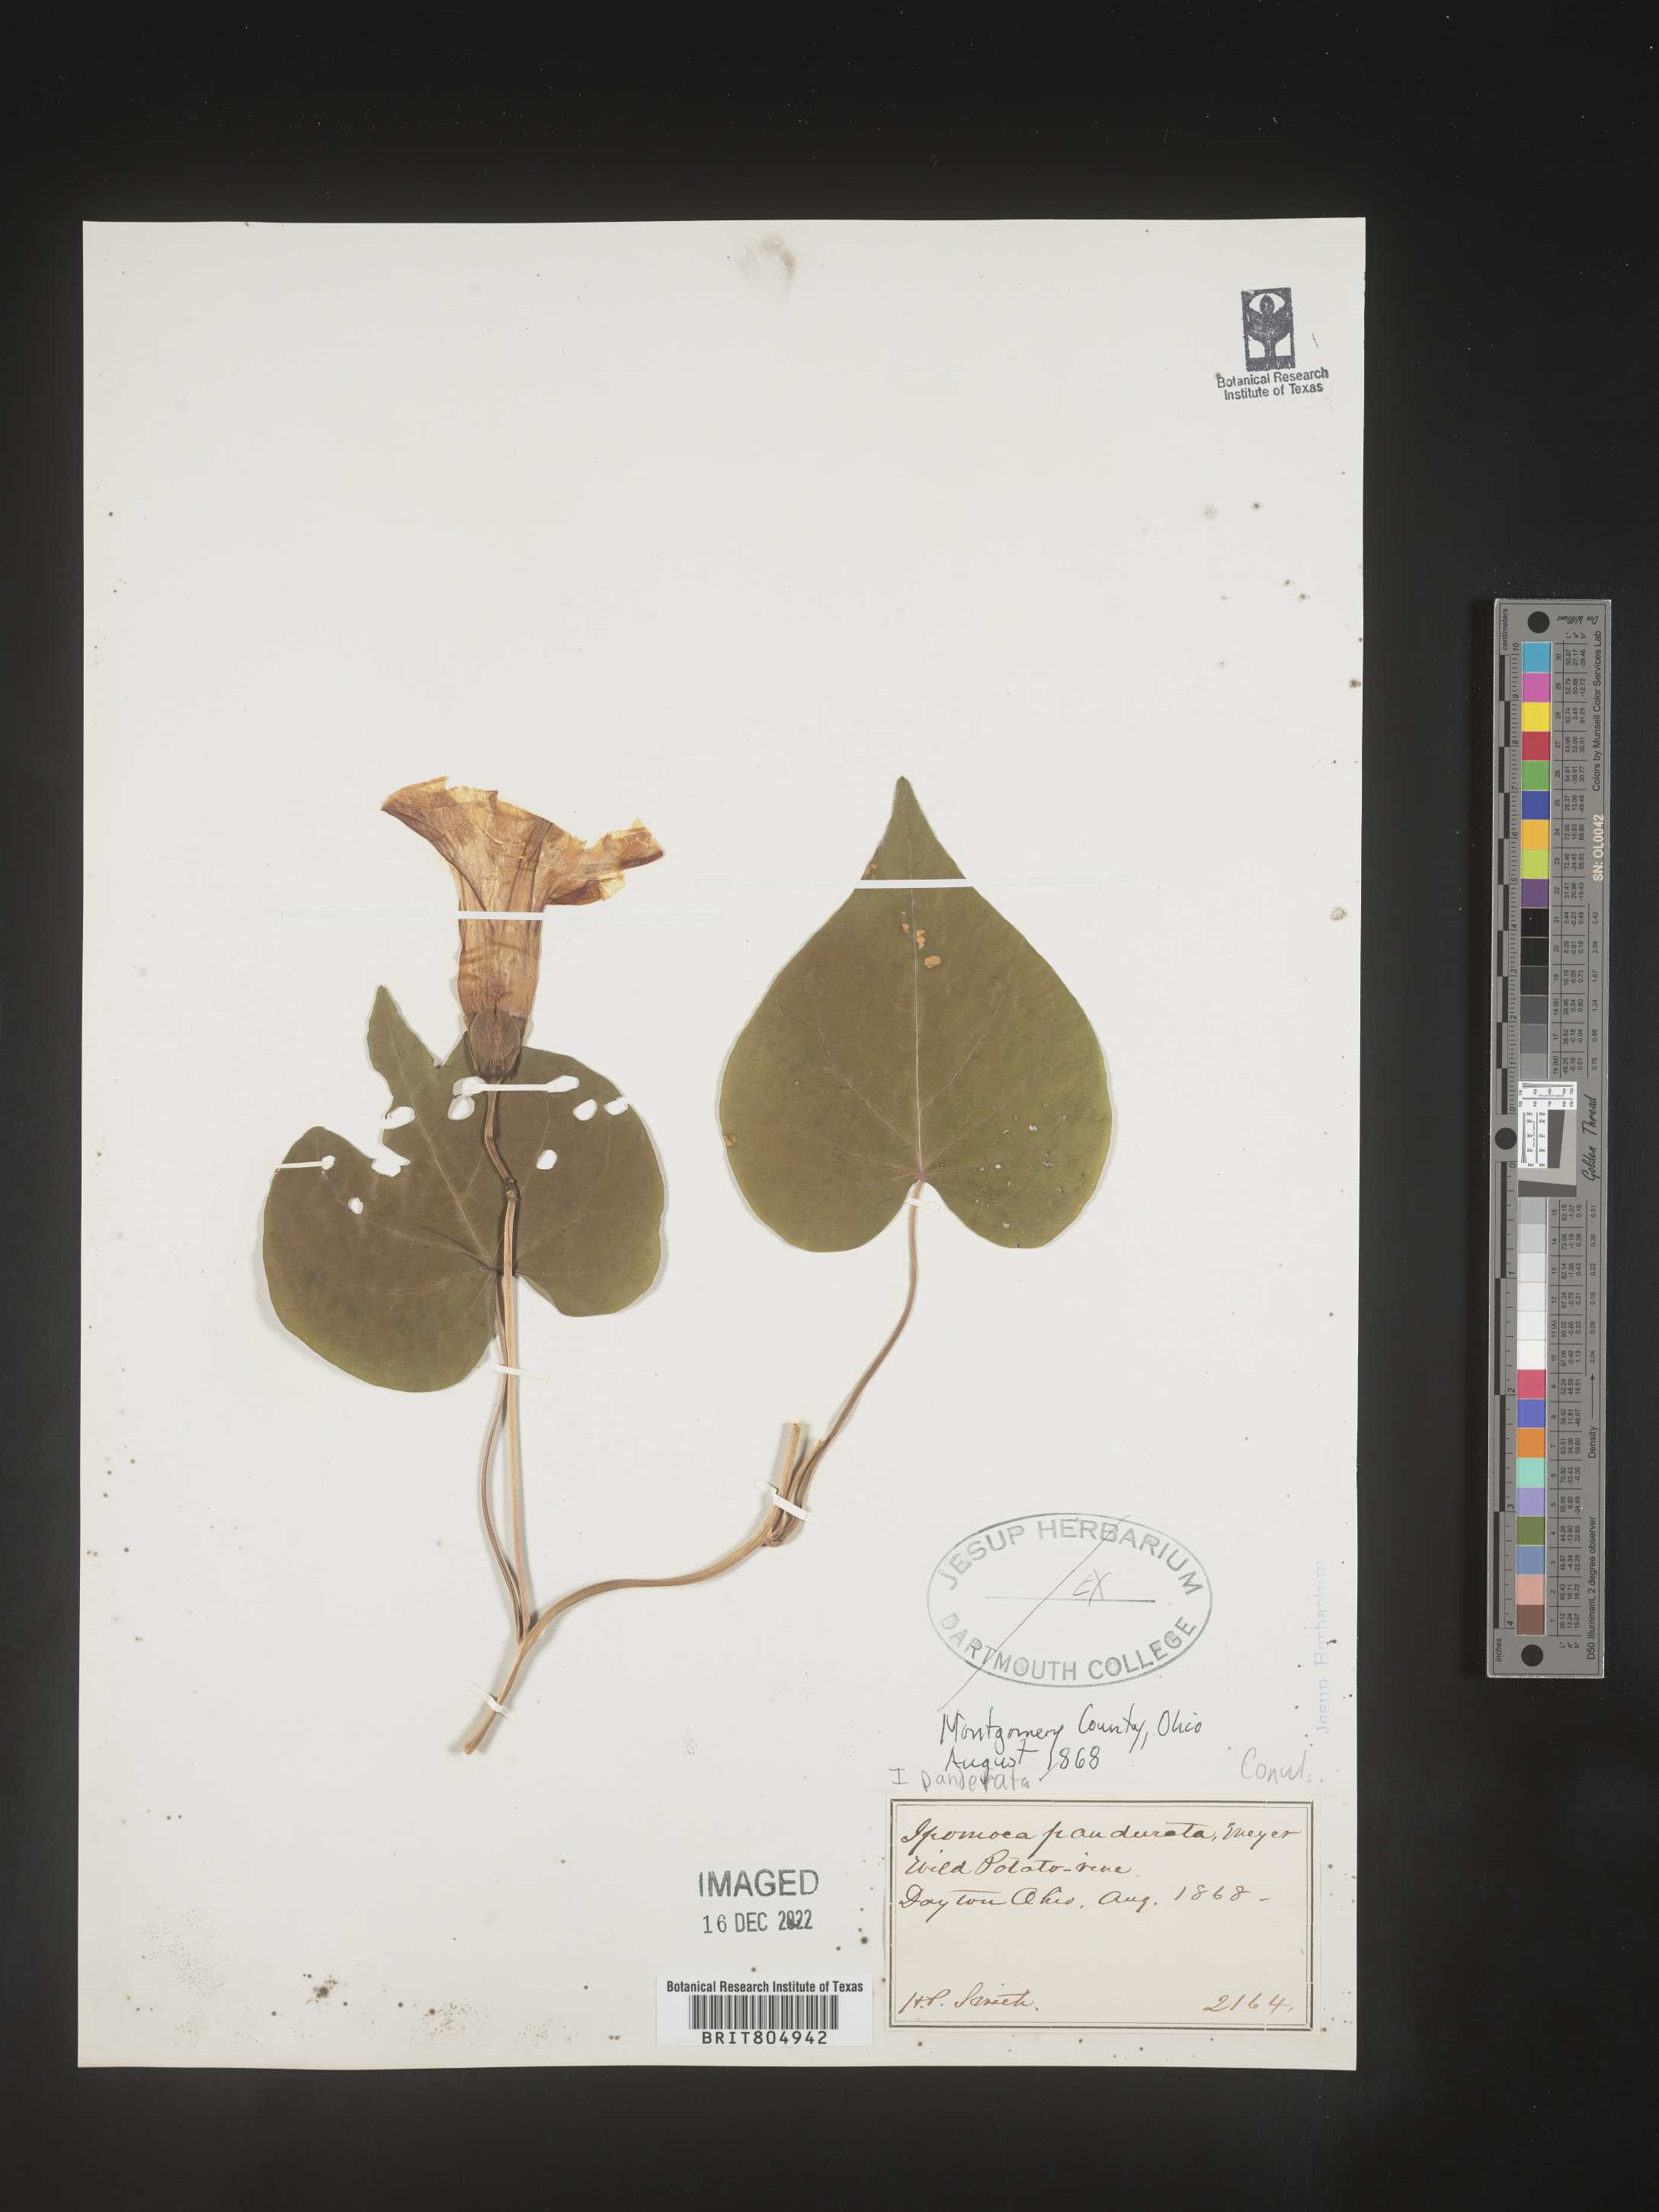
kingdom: Plantae
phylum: Tracheophyta
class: Magnoliopsida
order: Solanales
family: Convolvulaceae
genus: Ipomoea
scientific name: Ipomoea pandurata
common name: Man-of-the-earth
